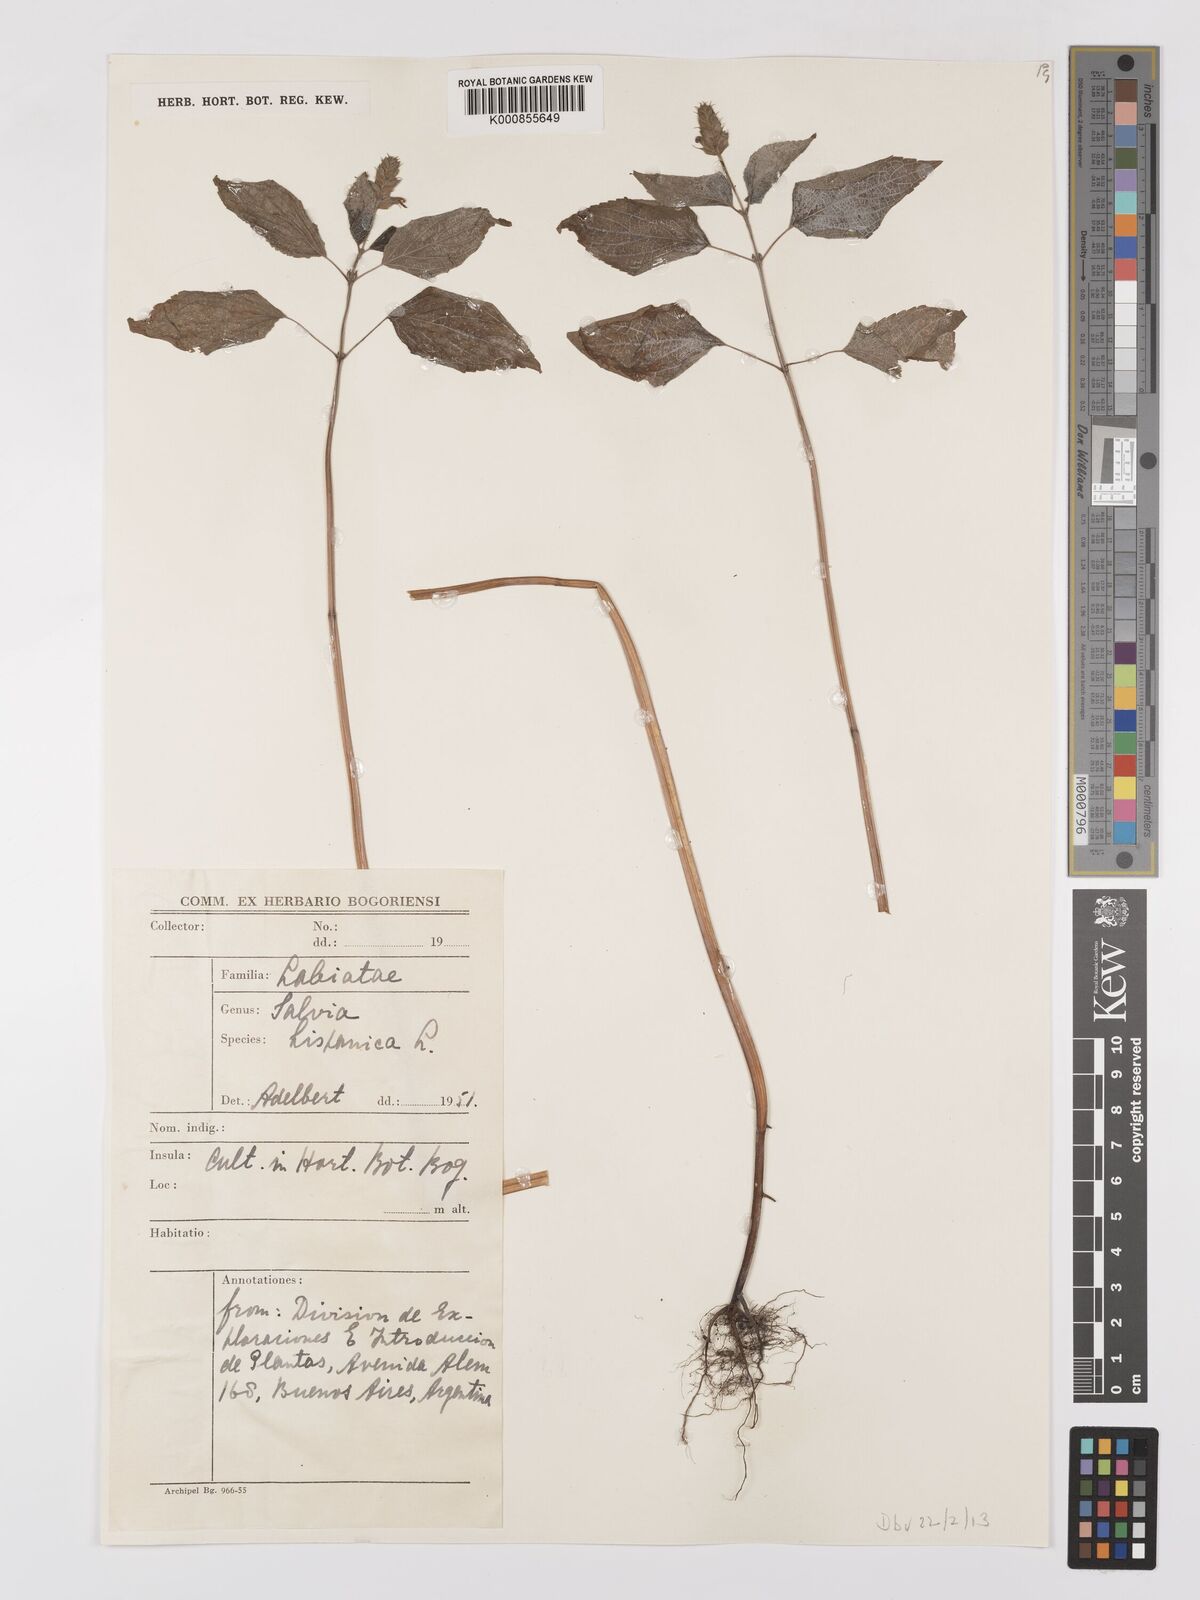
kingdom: Plantae
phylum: Tracheophyta
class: Magnoliopsida
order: Lamiales
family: Lamiaceae
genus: Salvia
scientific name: Salvia hispanica
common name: Chia
